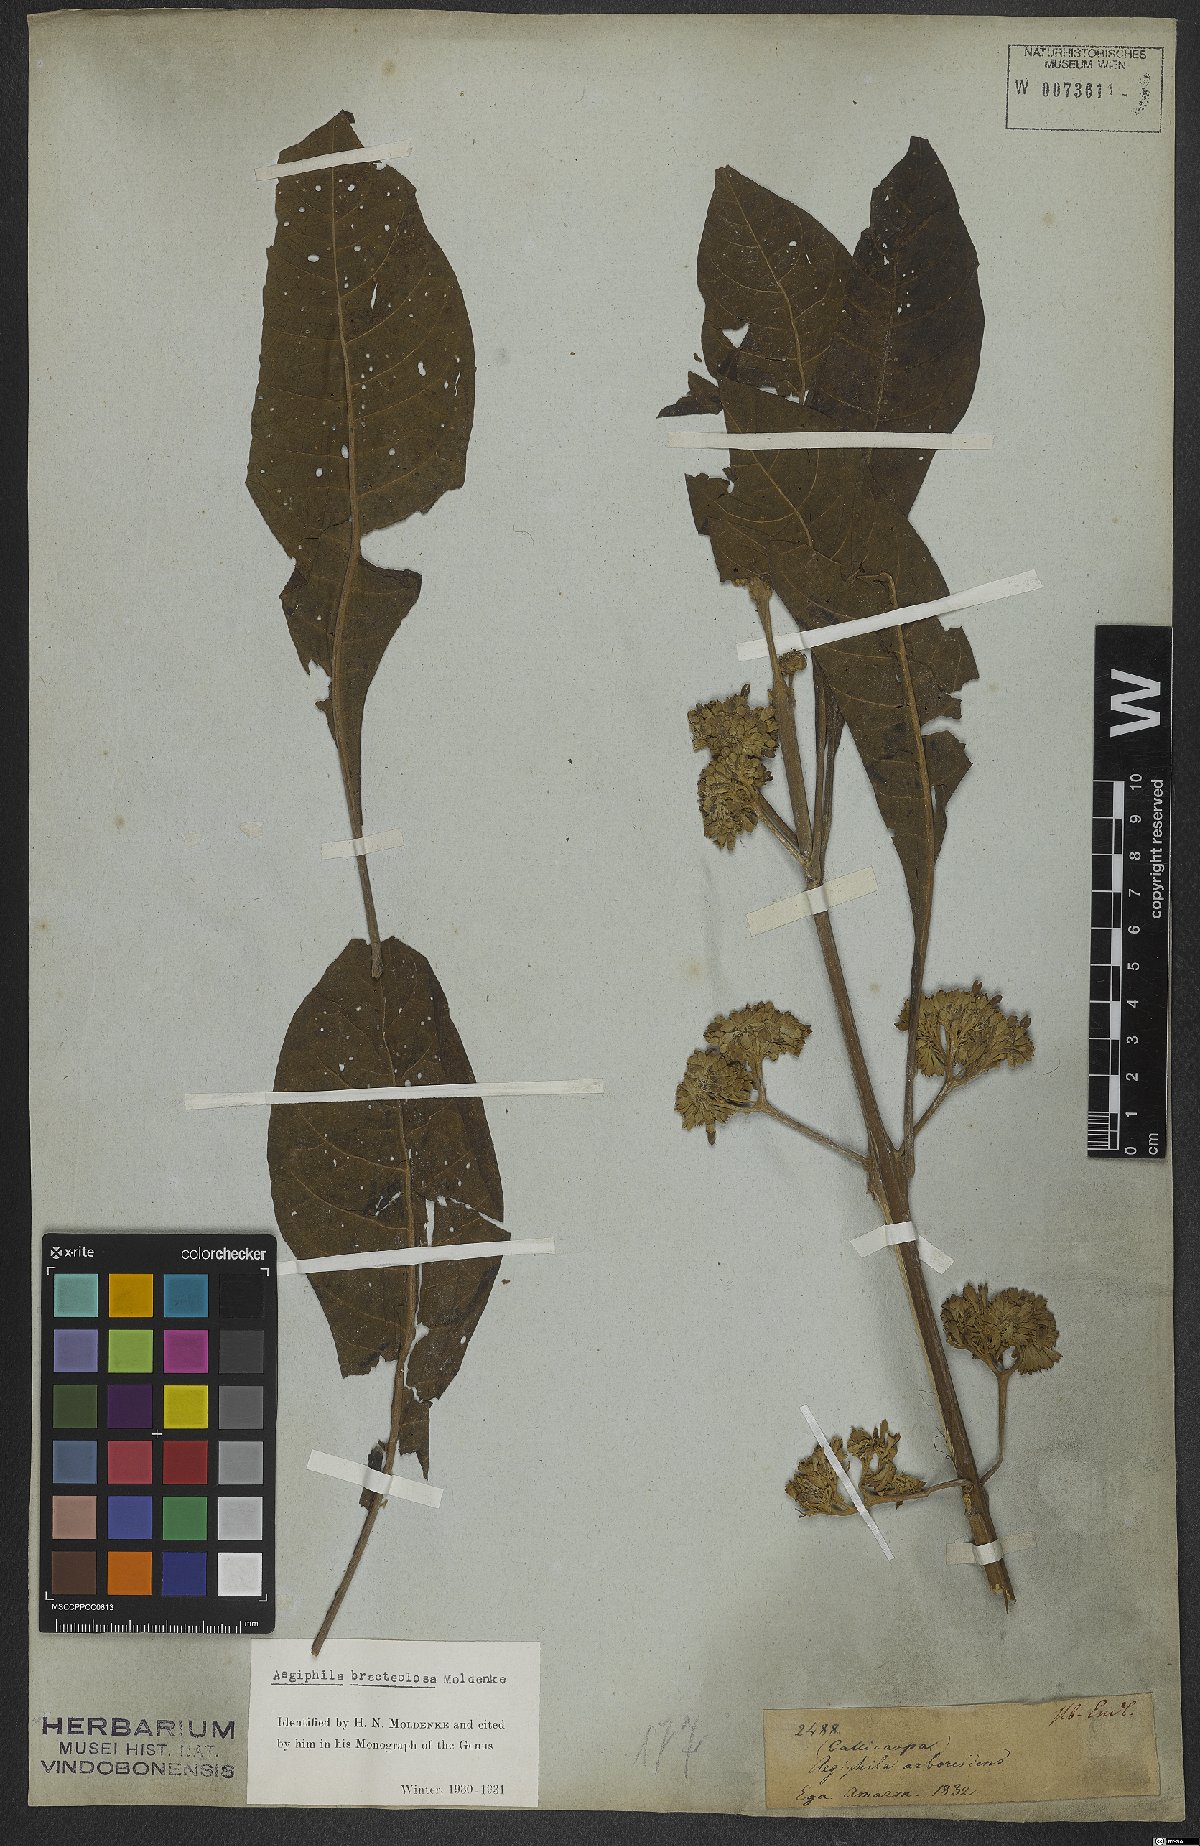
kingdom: Plantae
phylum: Tracheophyta
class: Magnoliopsida
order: Lamiales
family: Lamiaceae
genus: Aegiphila
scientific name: Aegiphila bracteolosa
